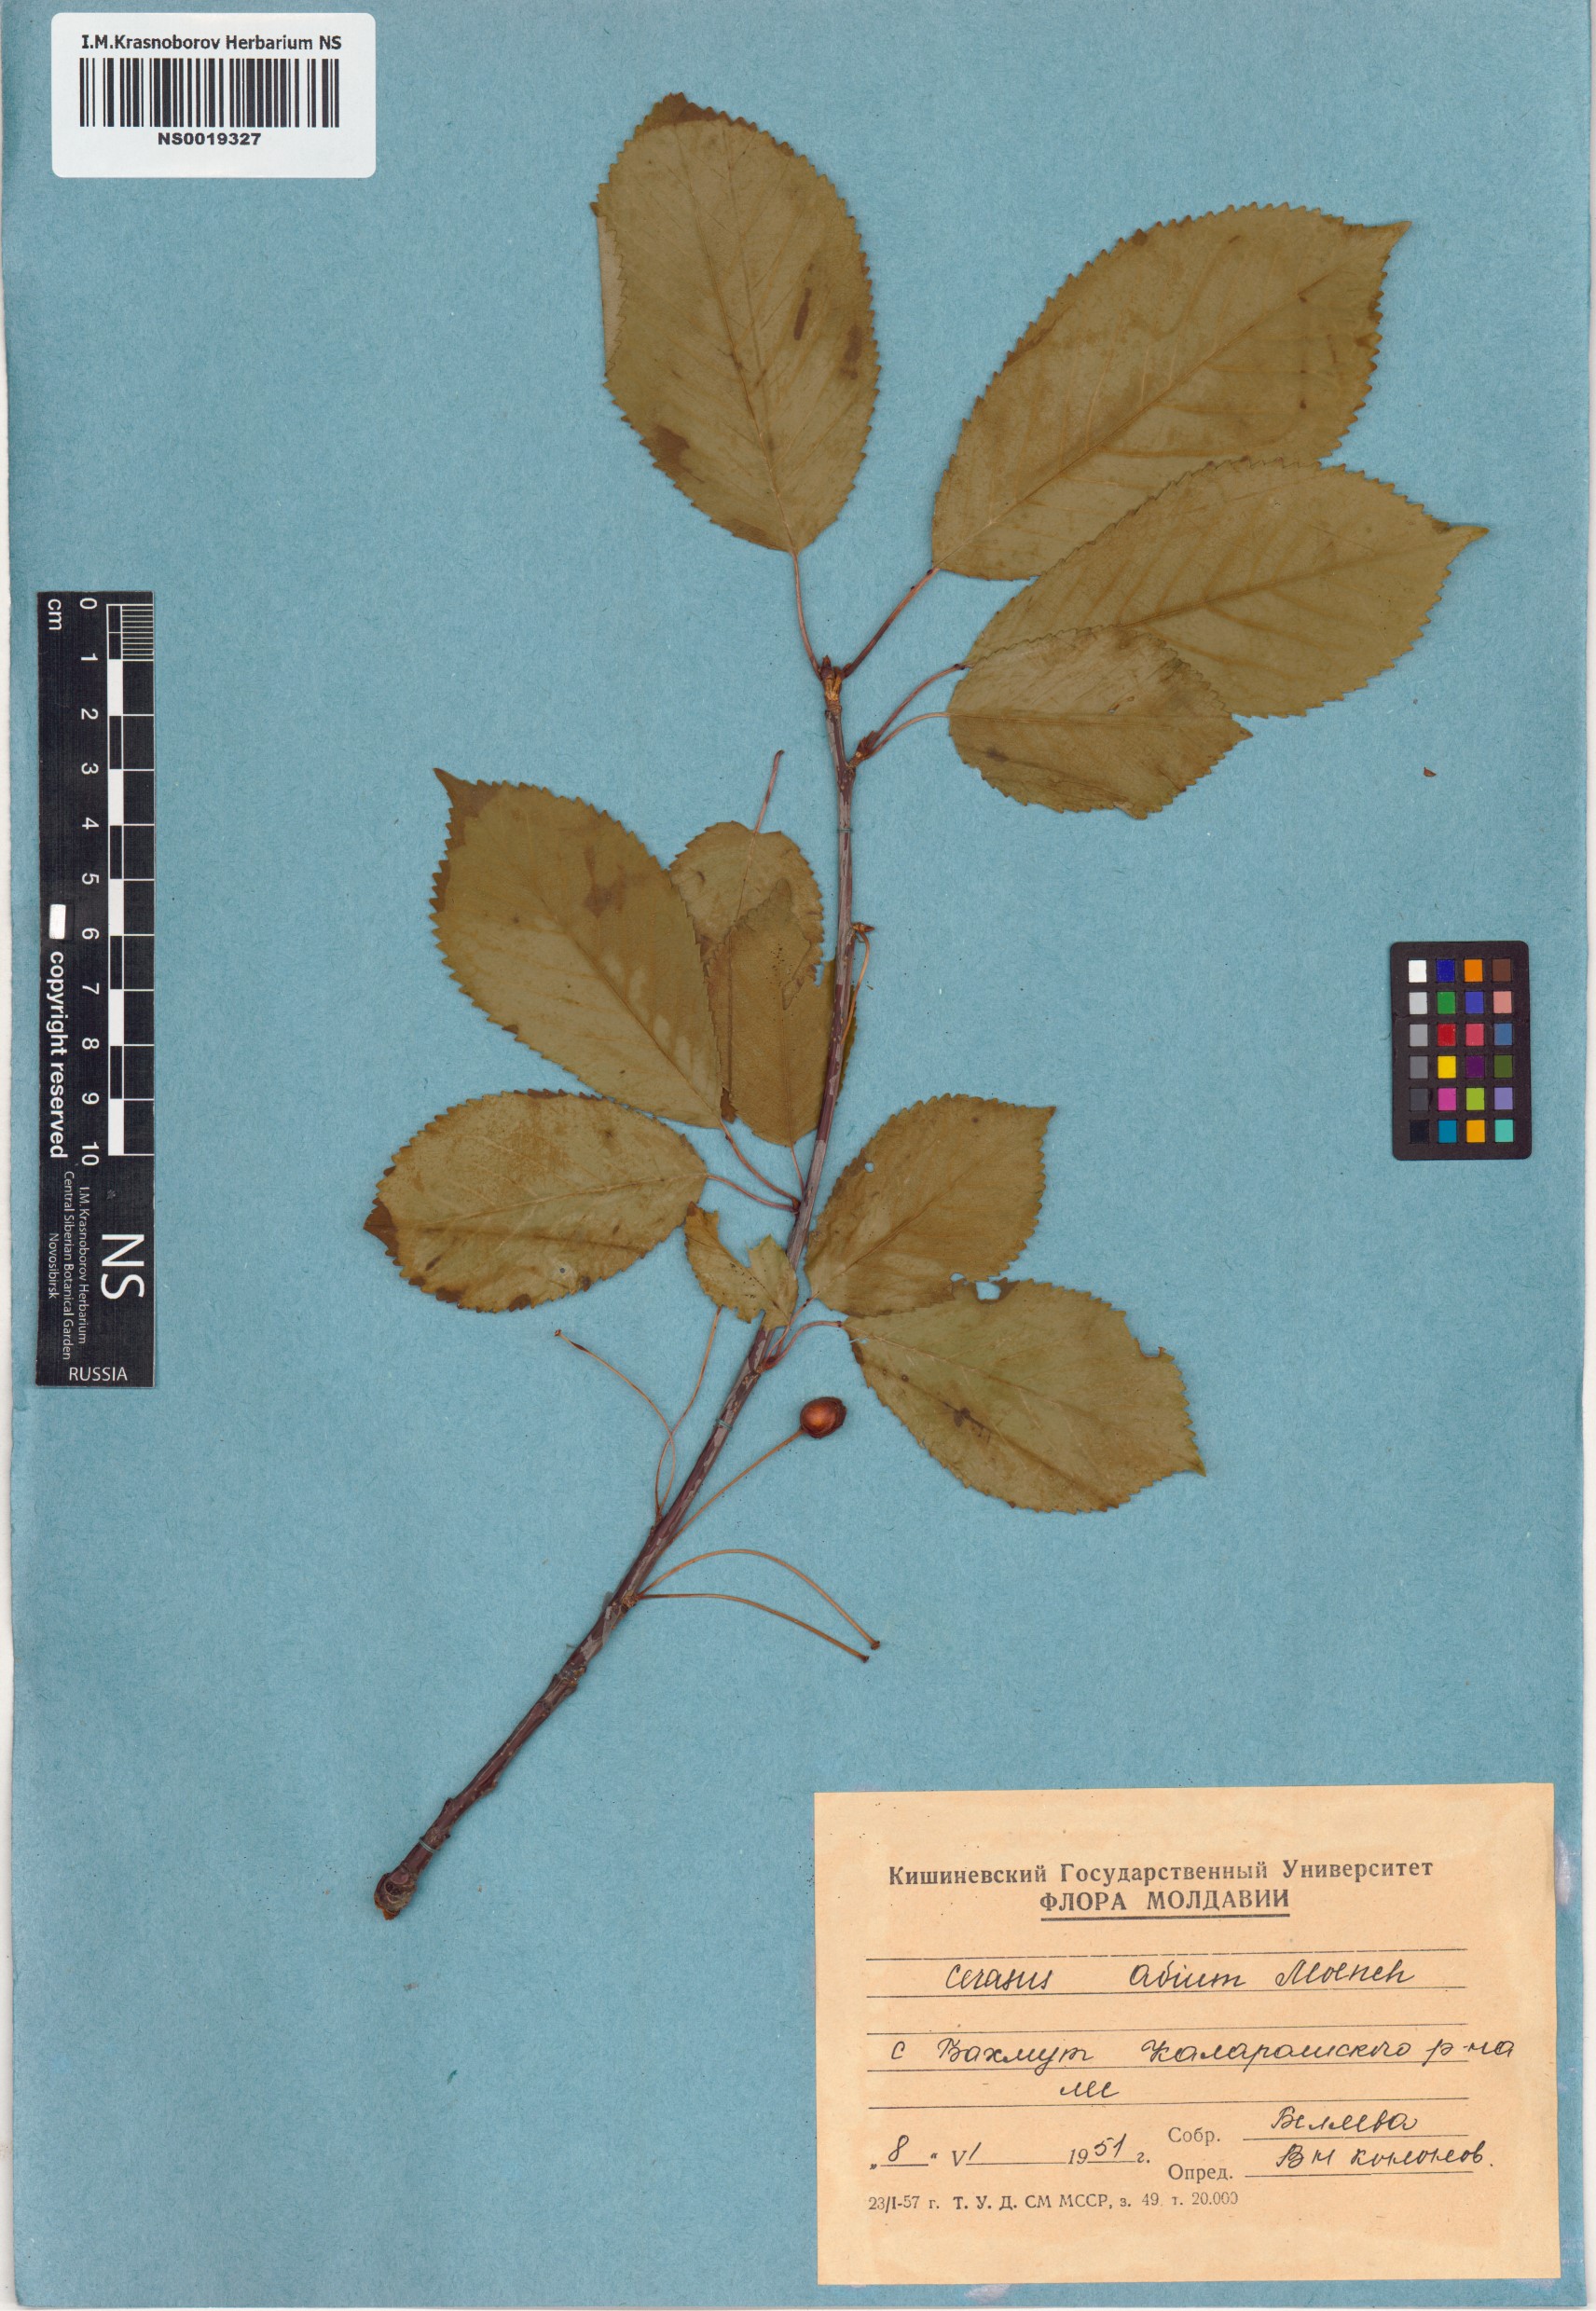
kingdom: Plantae
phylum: Tracheophyta
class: Magnoliopsida
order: Rosales
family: Rosaceae
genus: Prunus
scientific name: Prunus avium
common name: Sweet cherry
